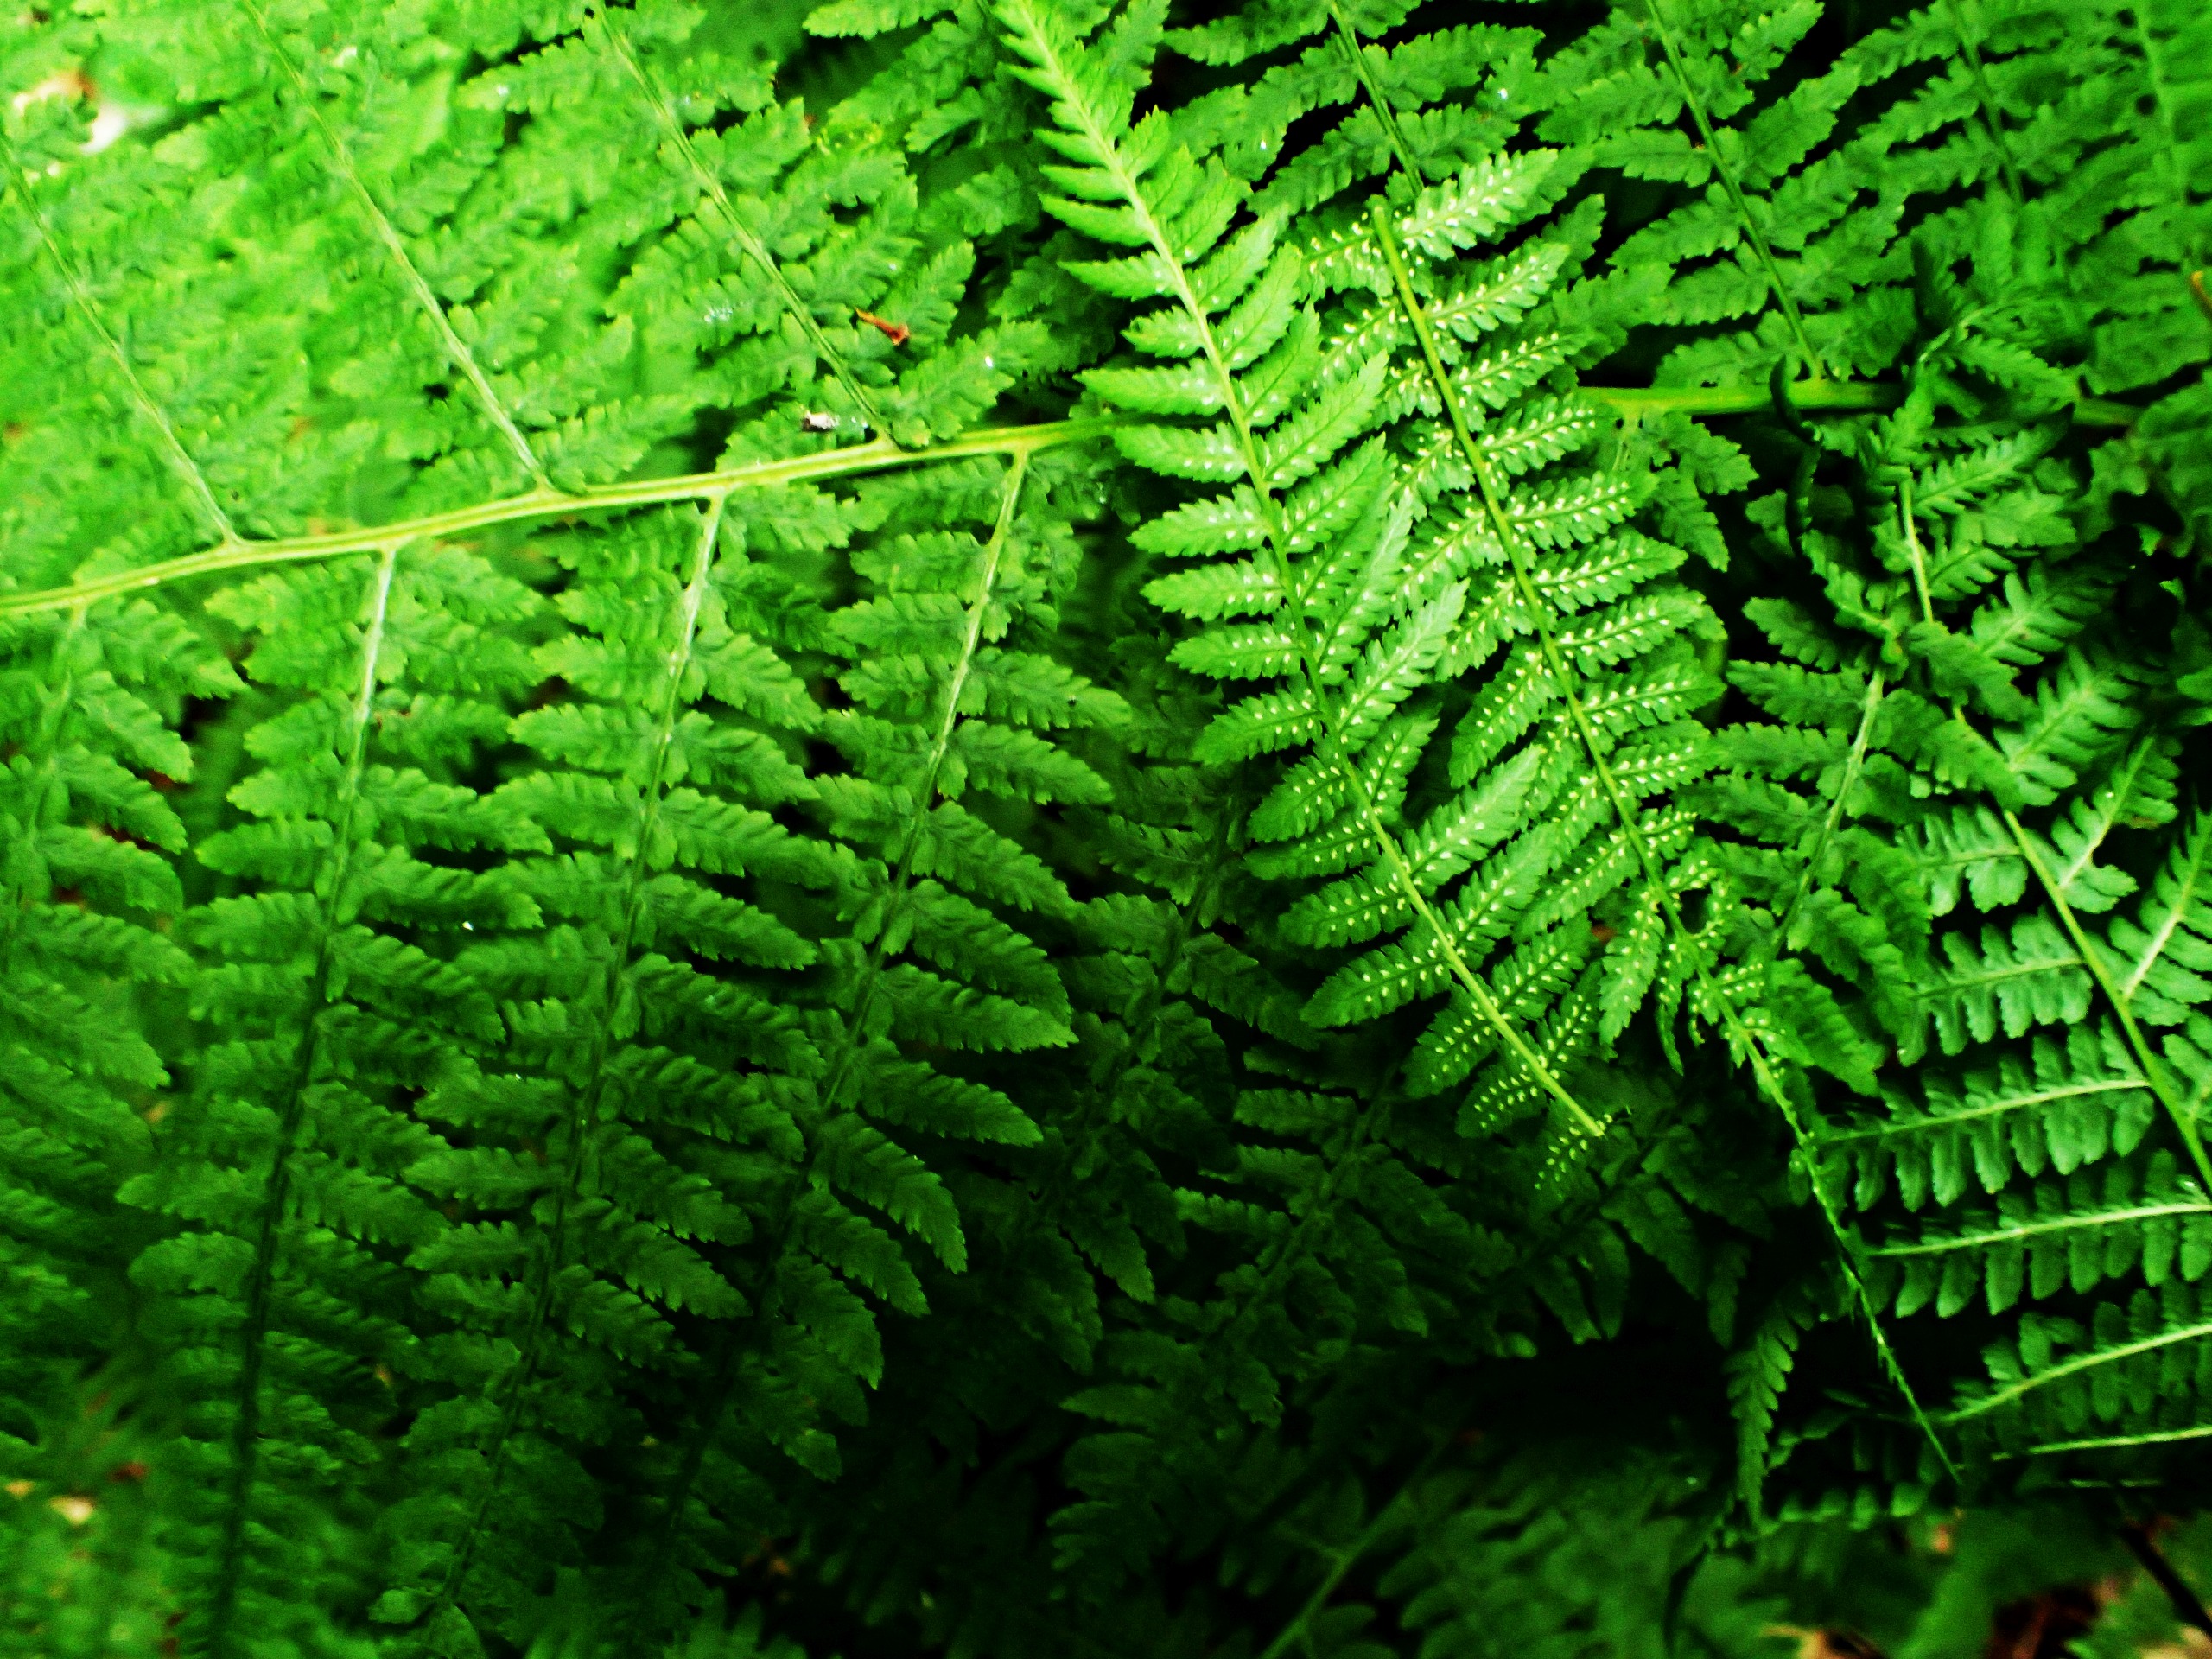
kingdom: Plantae
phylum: Tracheophyta
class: Polypodiopsida
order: Polypodiales
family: Athyriaceae
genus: Athyrium
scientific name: Athyrium filix-femina
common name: Fjerbregne
